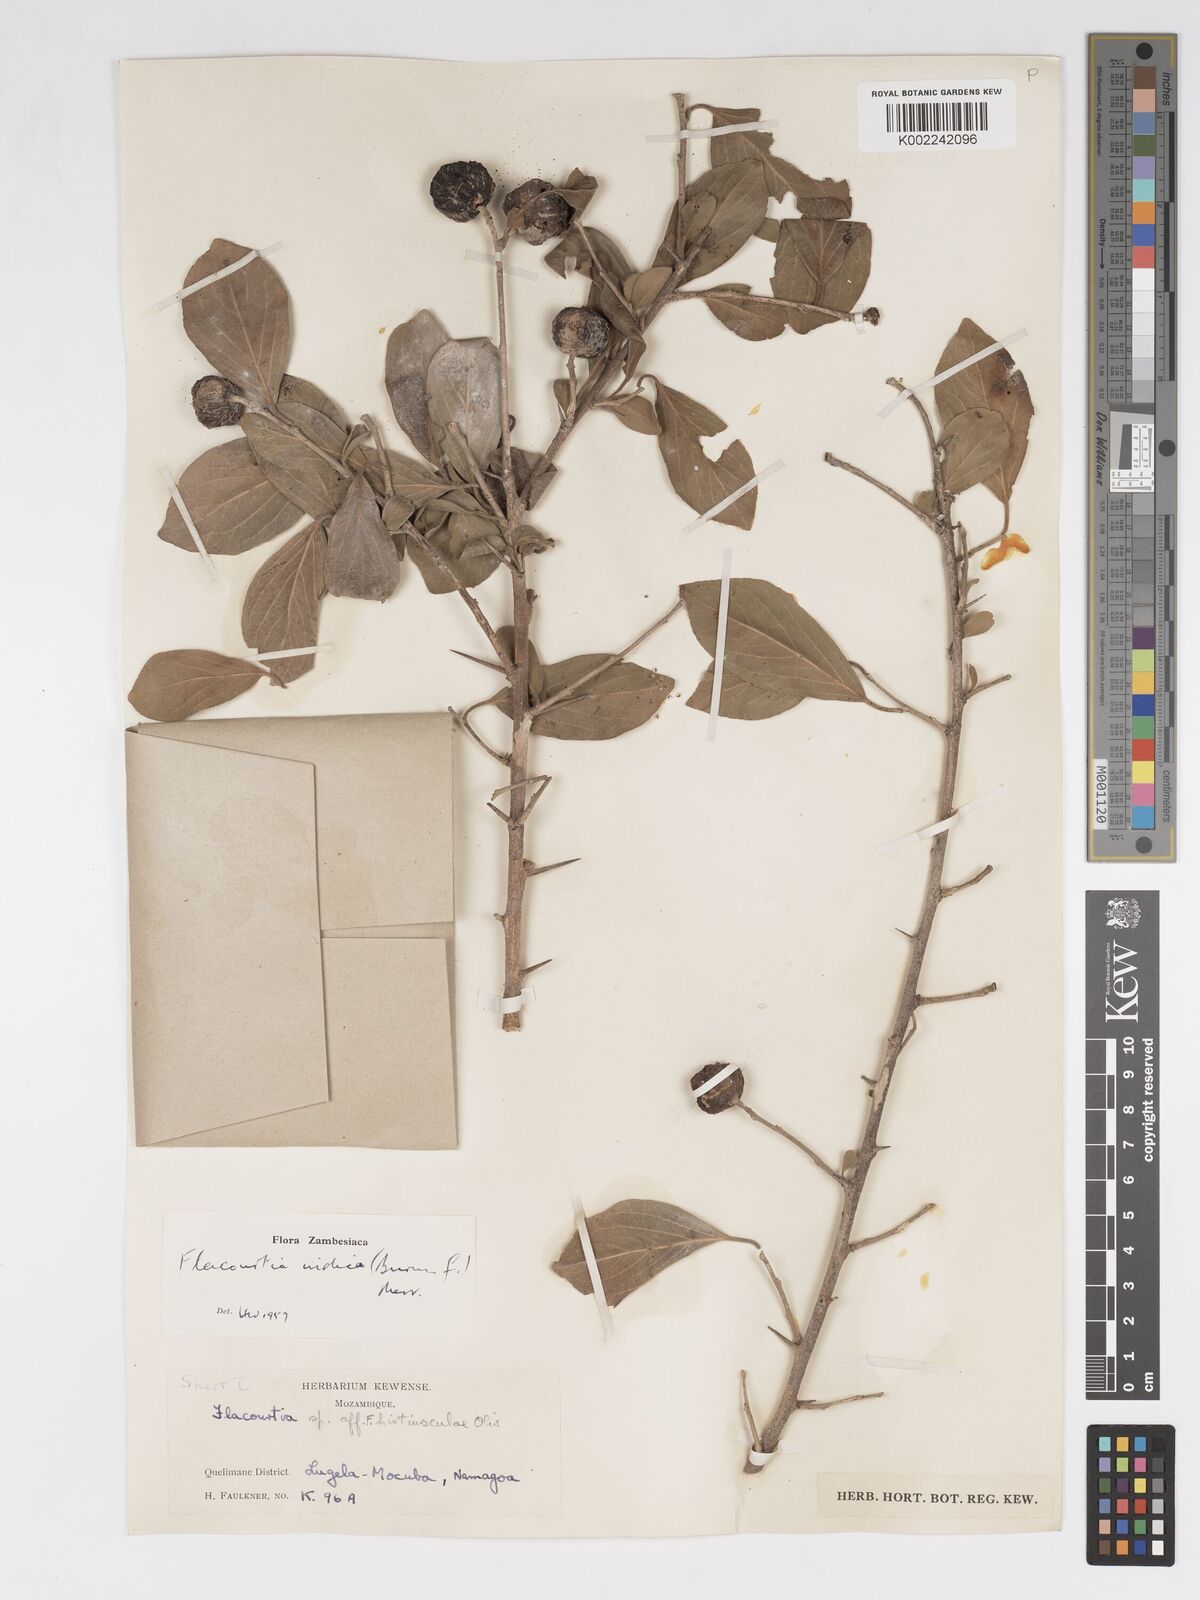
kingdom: Plantae
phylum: Tracheophyta
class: Magnoliopsida
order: Malpighiales
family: Salicaceae
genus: Flacourtia
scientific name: Flacourtia indica
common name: Governor's plum
